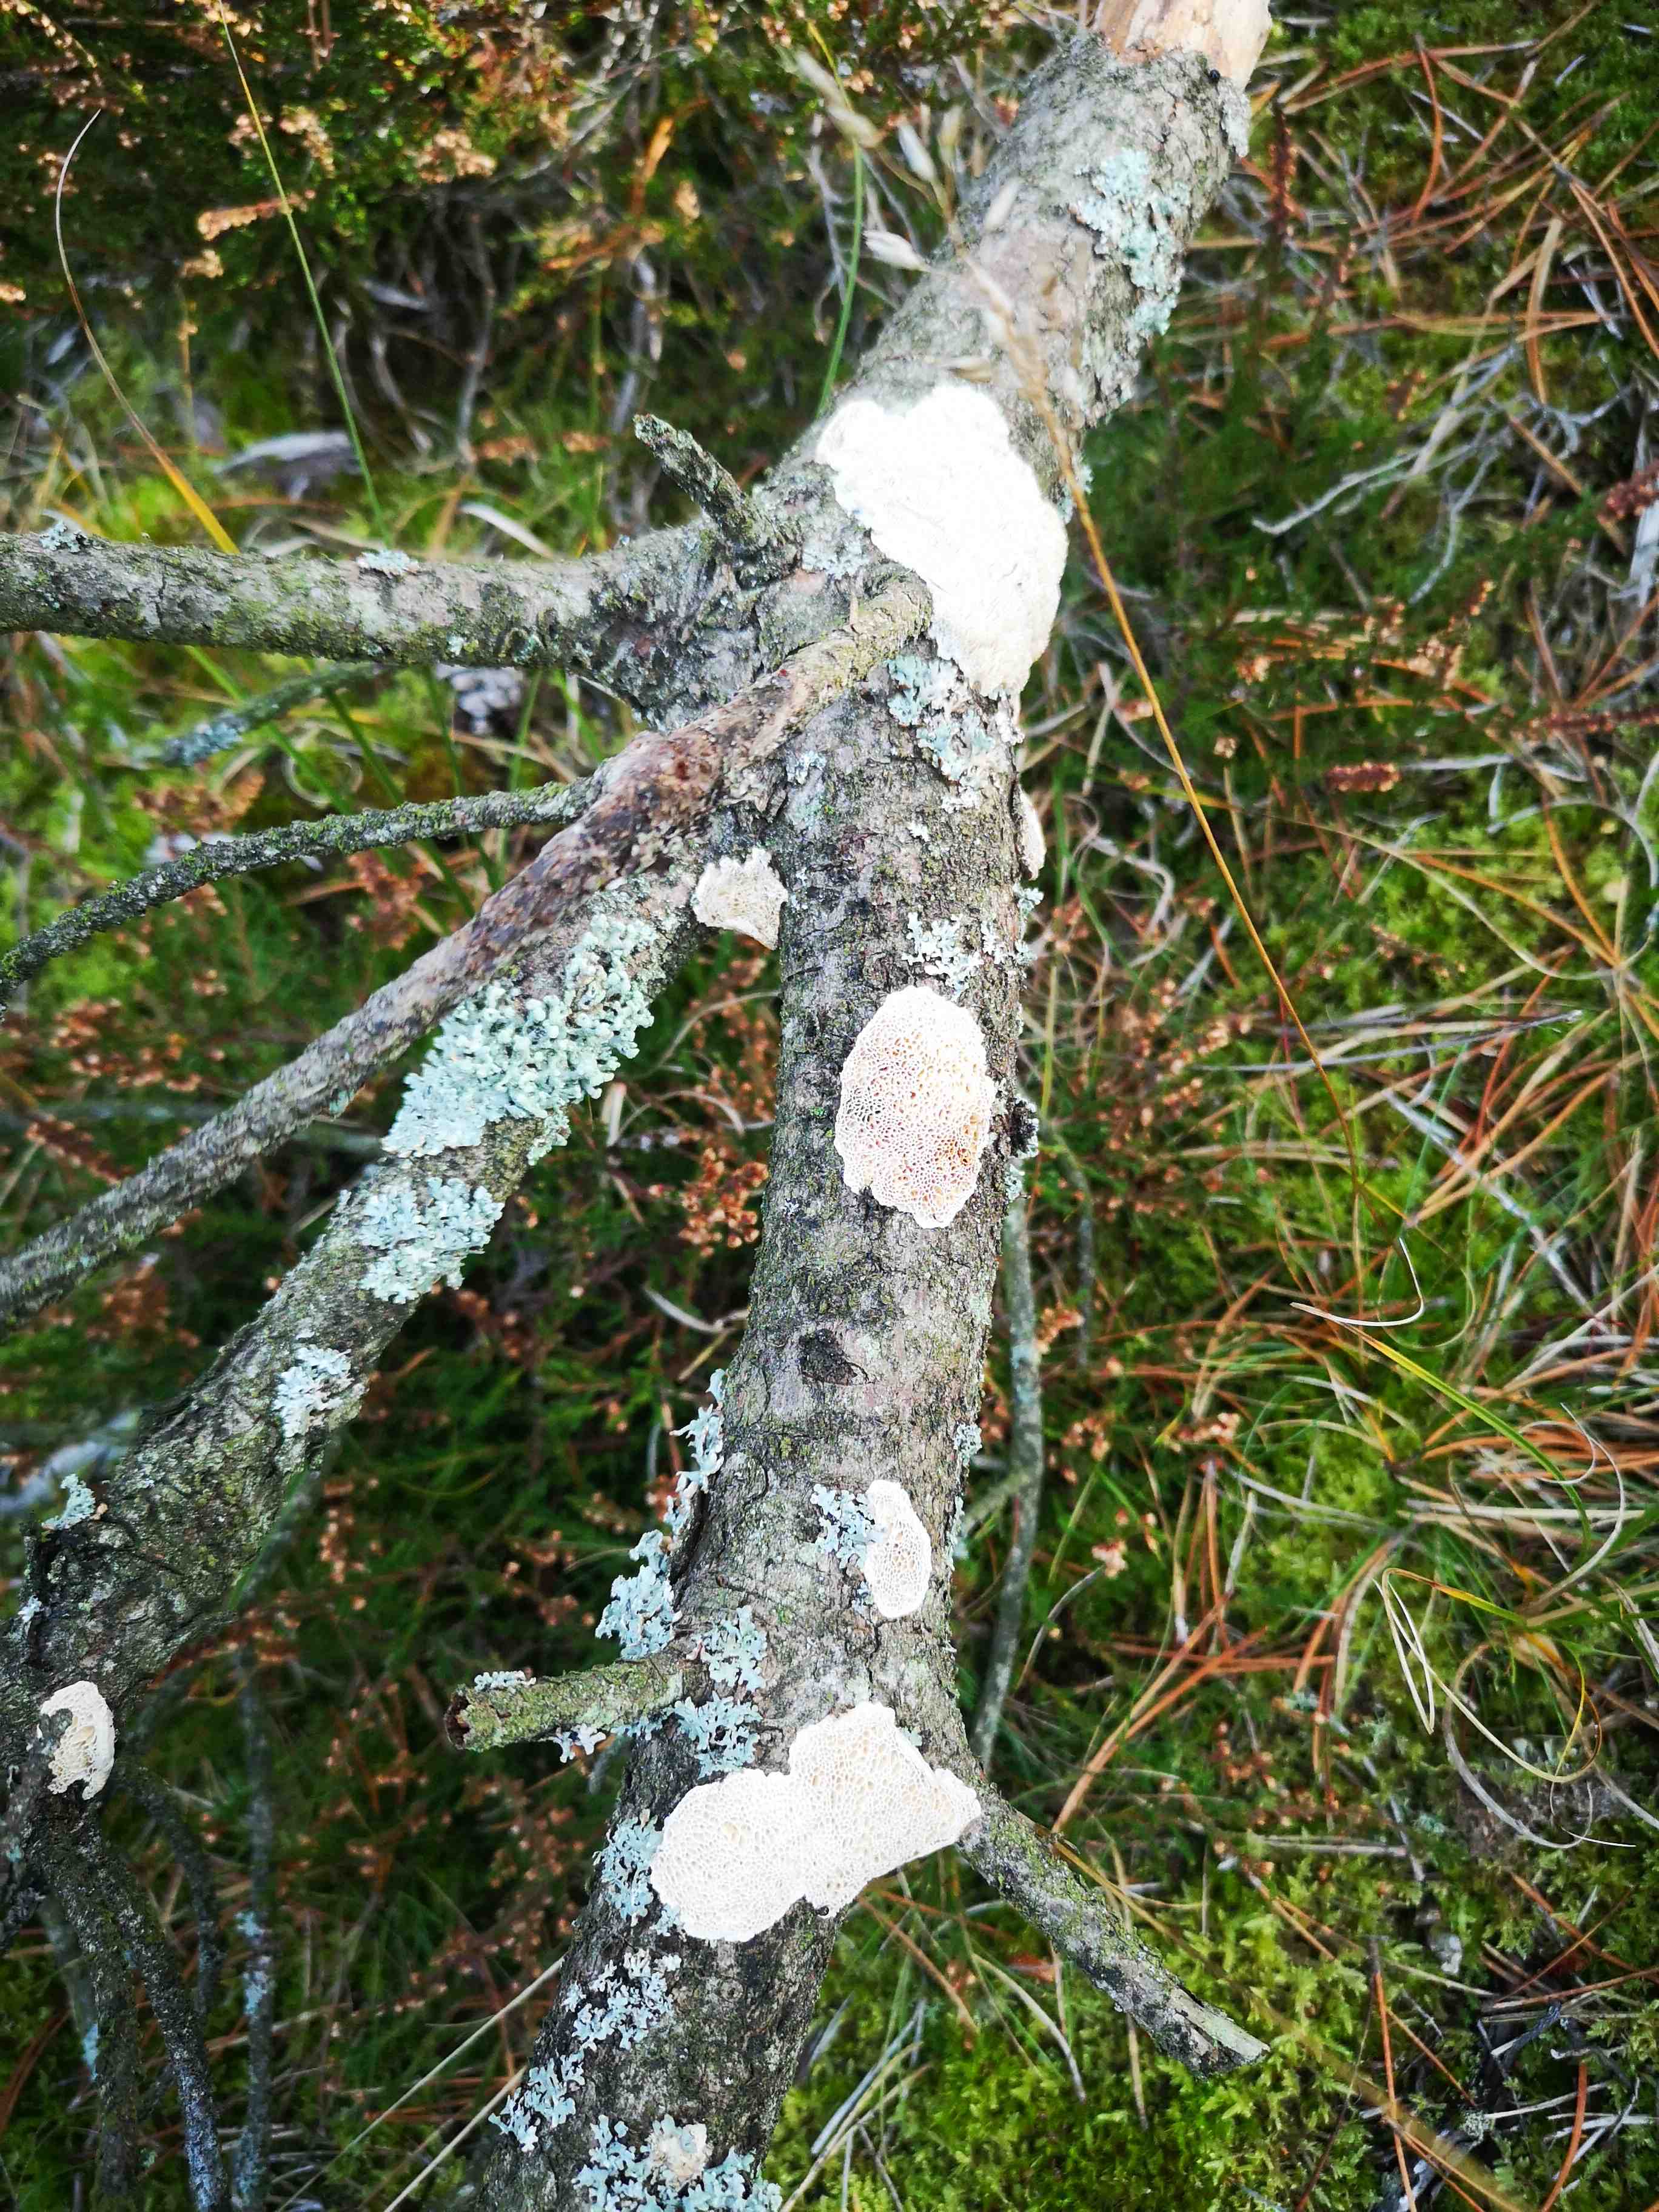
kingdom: Fungi
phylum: Basidiomycota
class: Agaricomycetes
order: Polyporales
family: Fomitopsidaceae
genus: Fomitopsis
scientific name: Fomitopsis
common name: fyrre-skiveporesvamp
